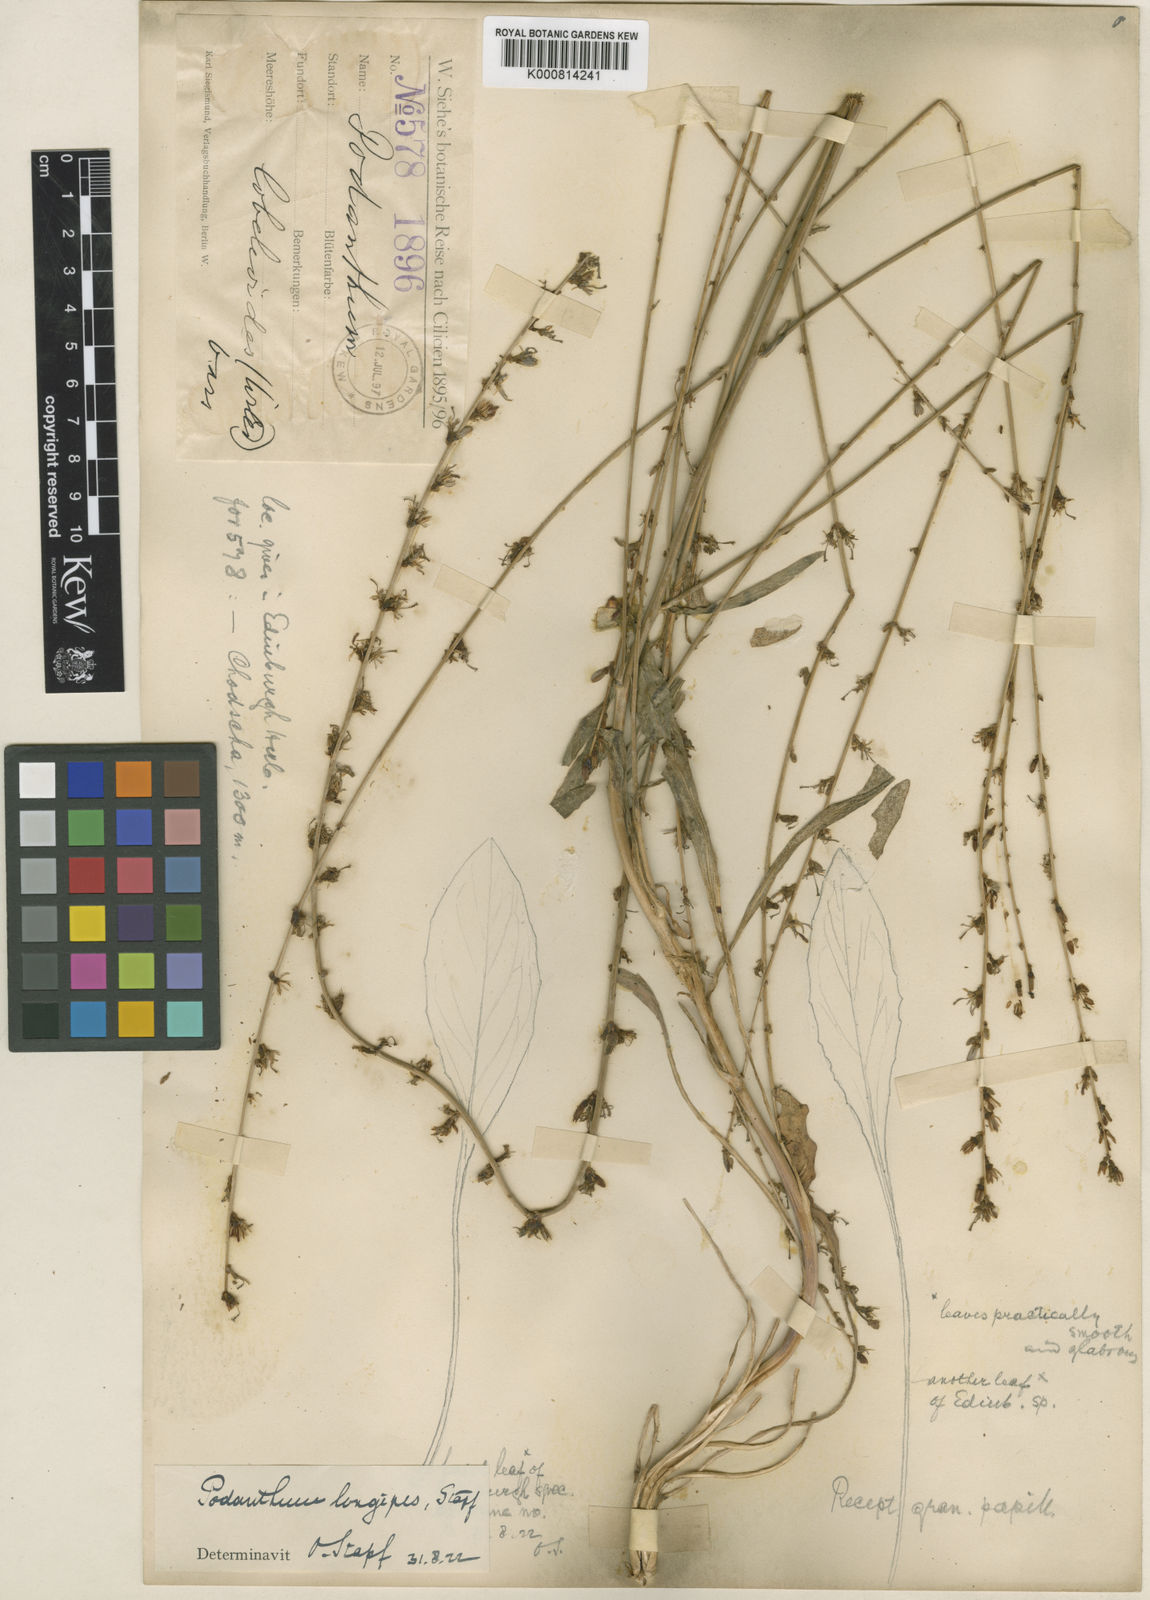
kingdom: Plantae
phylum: Tracheophyta
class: Magnoliopsida
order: Asterales
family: Campanulaceae
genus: Phyteuma
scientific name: Phyteuma
